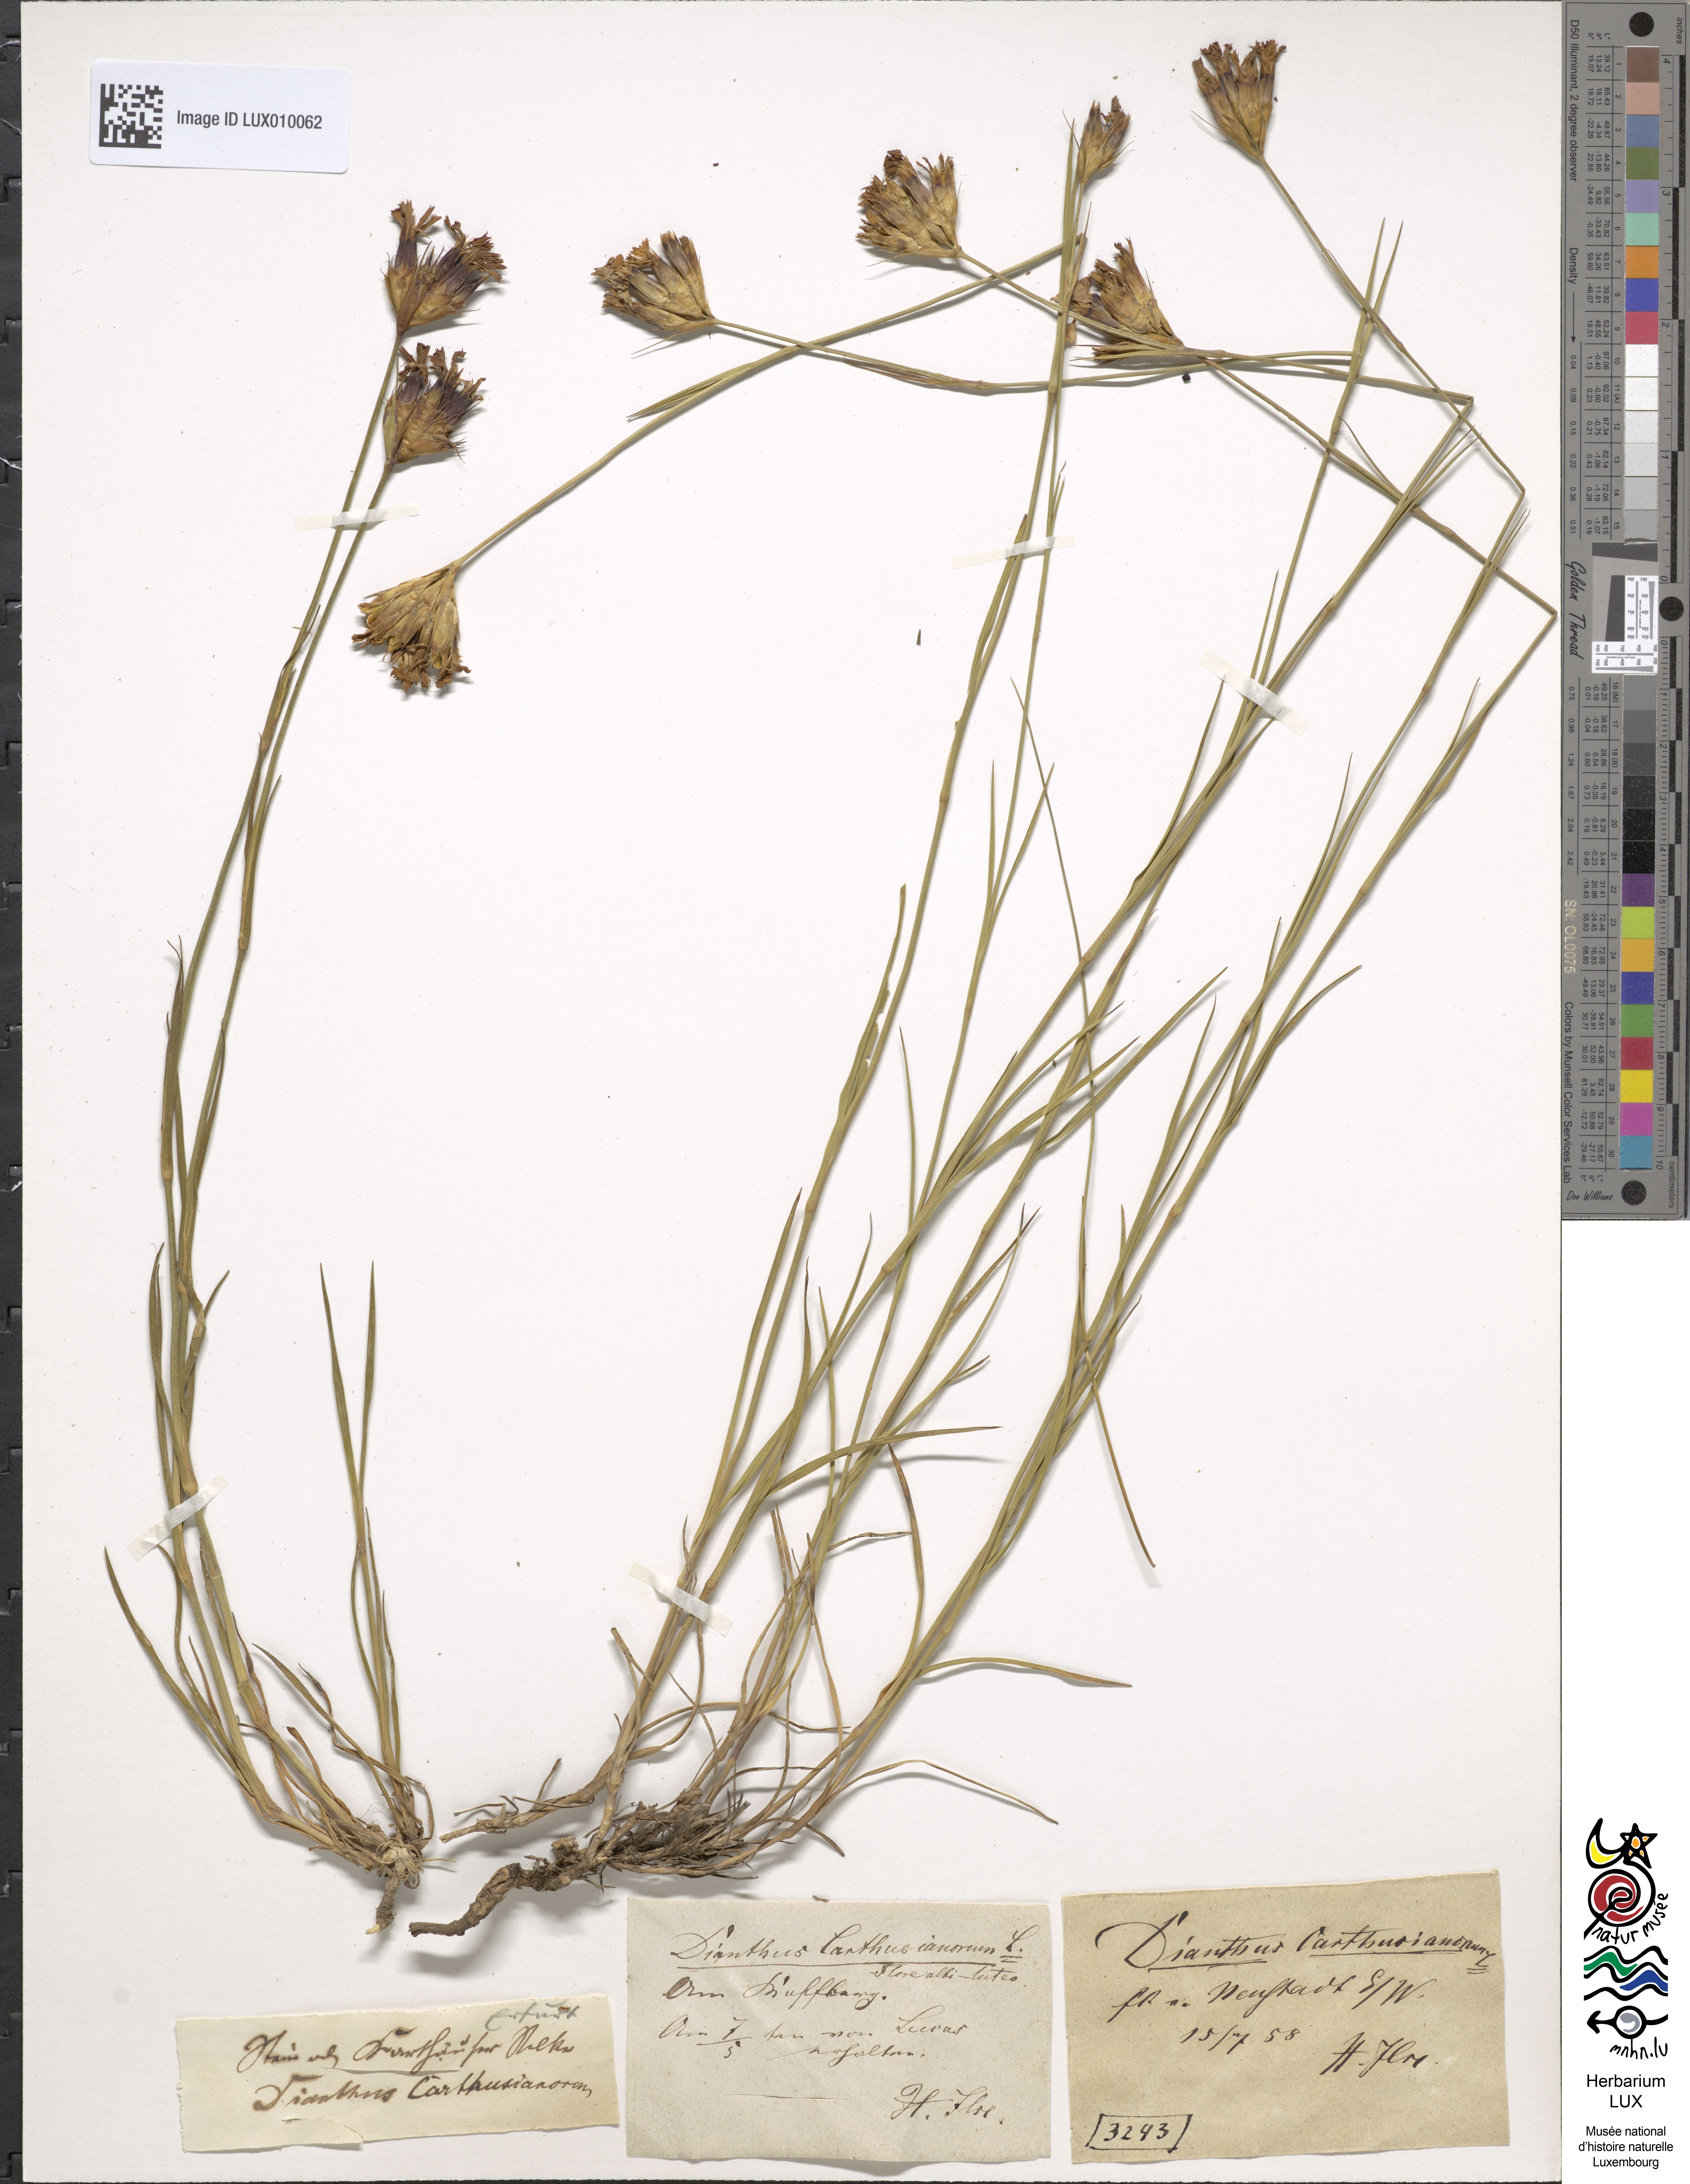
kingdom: Plantae
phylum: Tracheophyta
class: Magnoliopsida
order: Caryophyllales
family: Caryophyllaceae
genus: Dianthus
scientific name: Dianthus carthusianorum
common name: Carthusian pink
